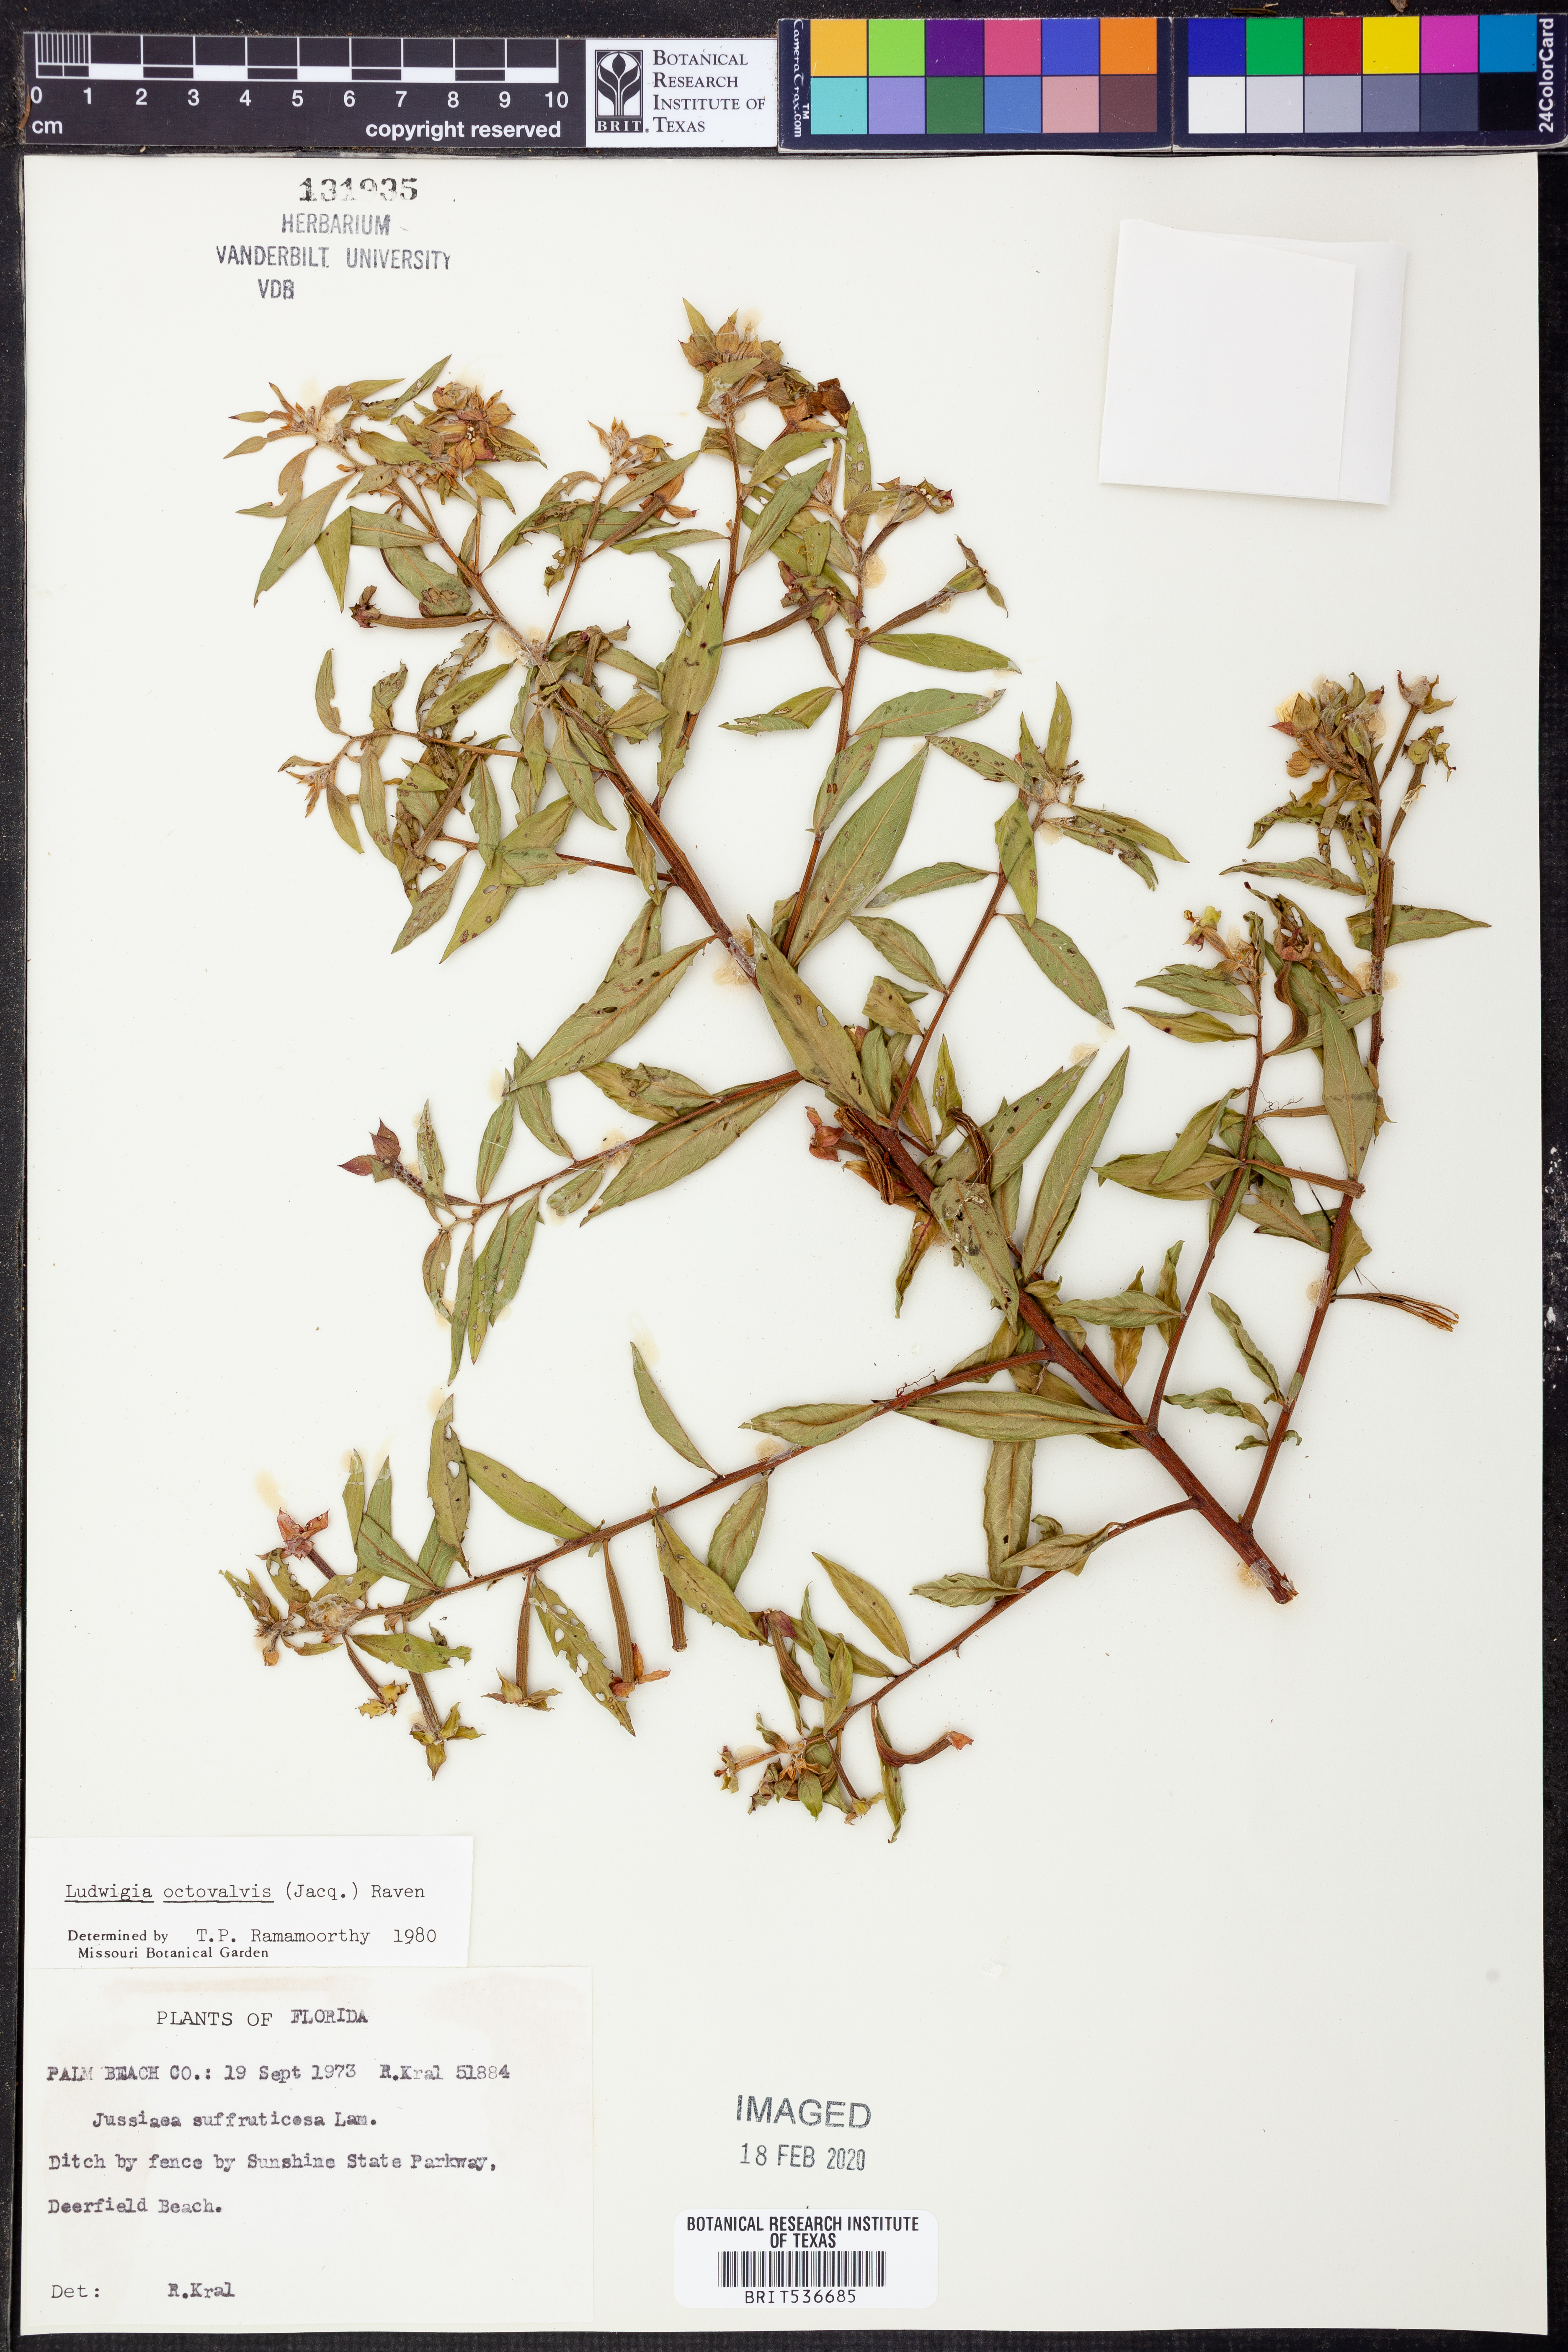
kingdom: Plantae
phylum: Tracheophyta
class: Magnoliopsida
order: Myrtales
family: Onagraceae
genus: Ludwigia
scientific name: Ludwigia octovalvis
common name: Water-primrose
